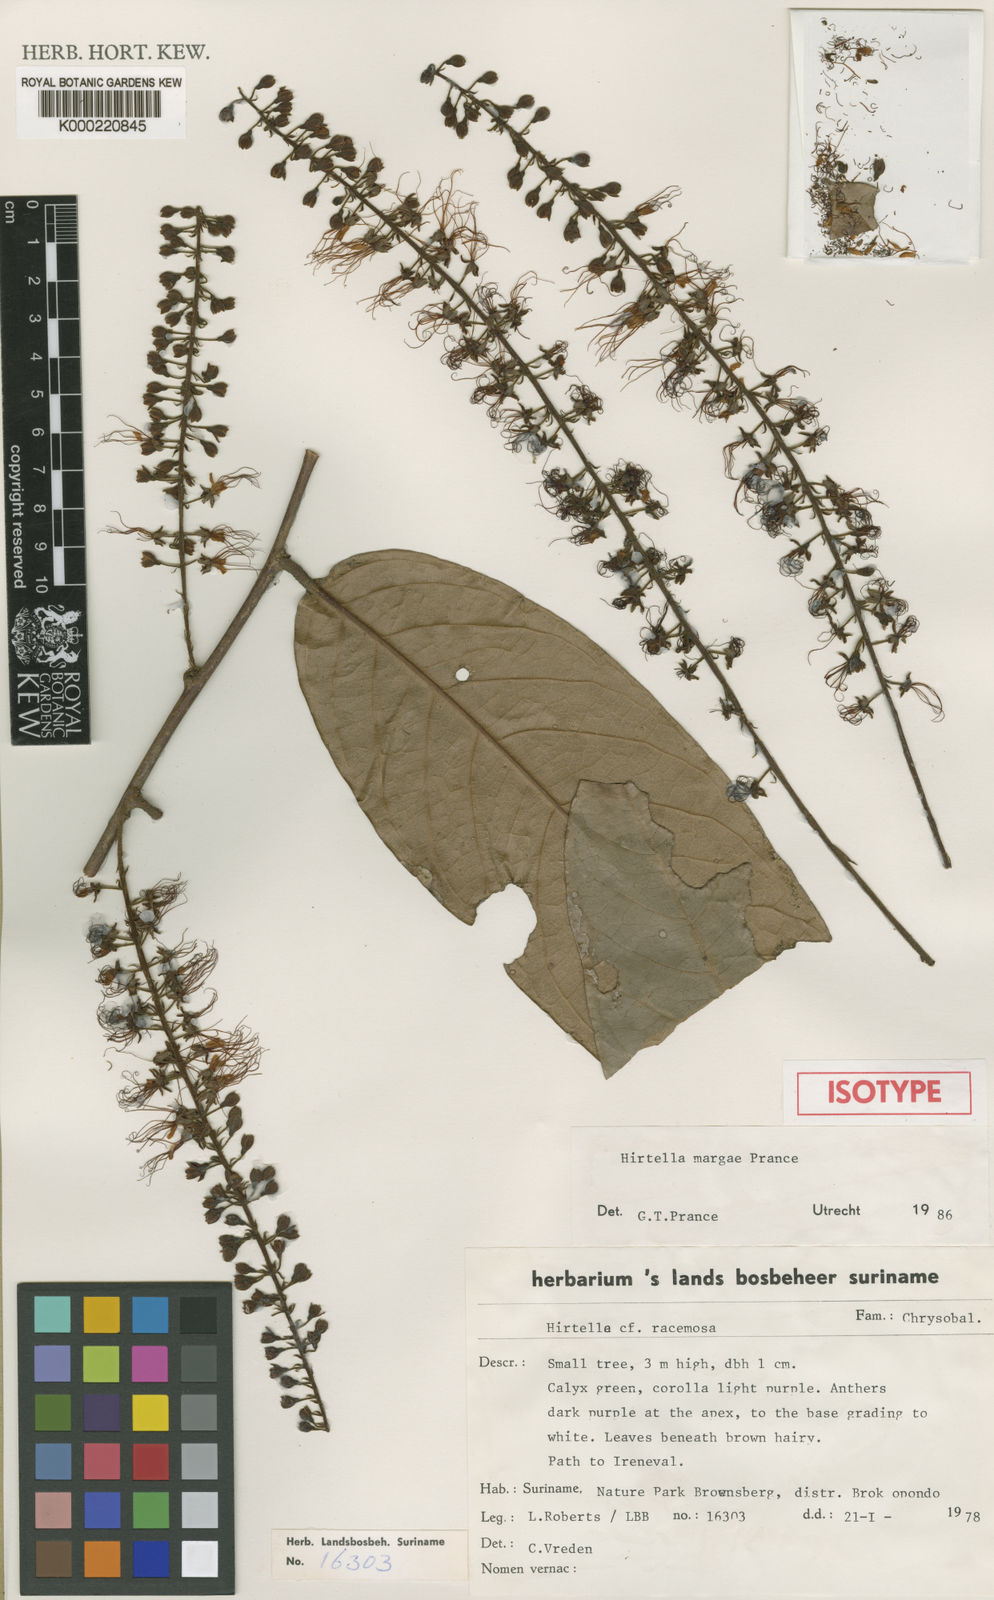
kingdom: Plantae
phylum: Tracheophyta
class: Magnoliopsida
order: Malpighiales
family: Chrysobalanaceae
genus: Hirtella
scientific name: Hirtella racemosa
